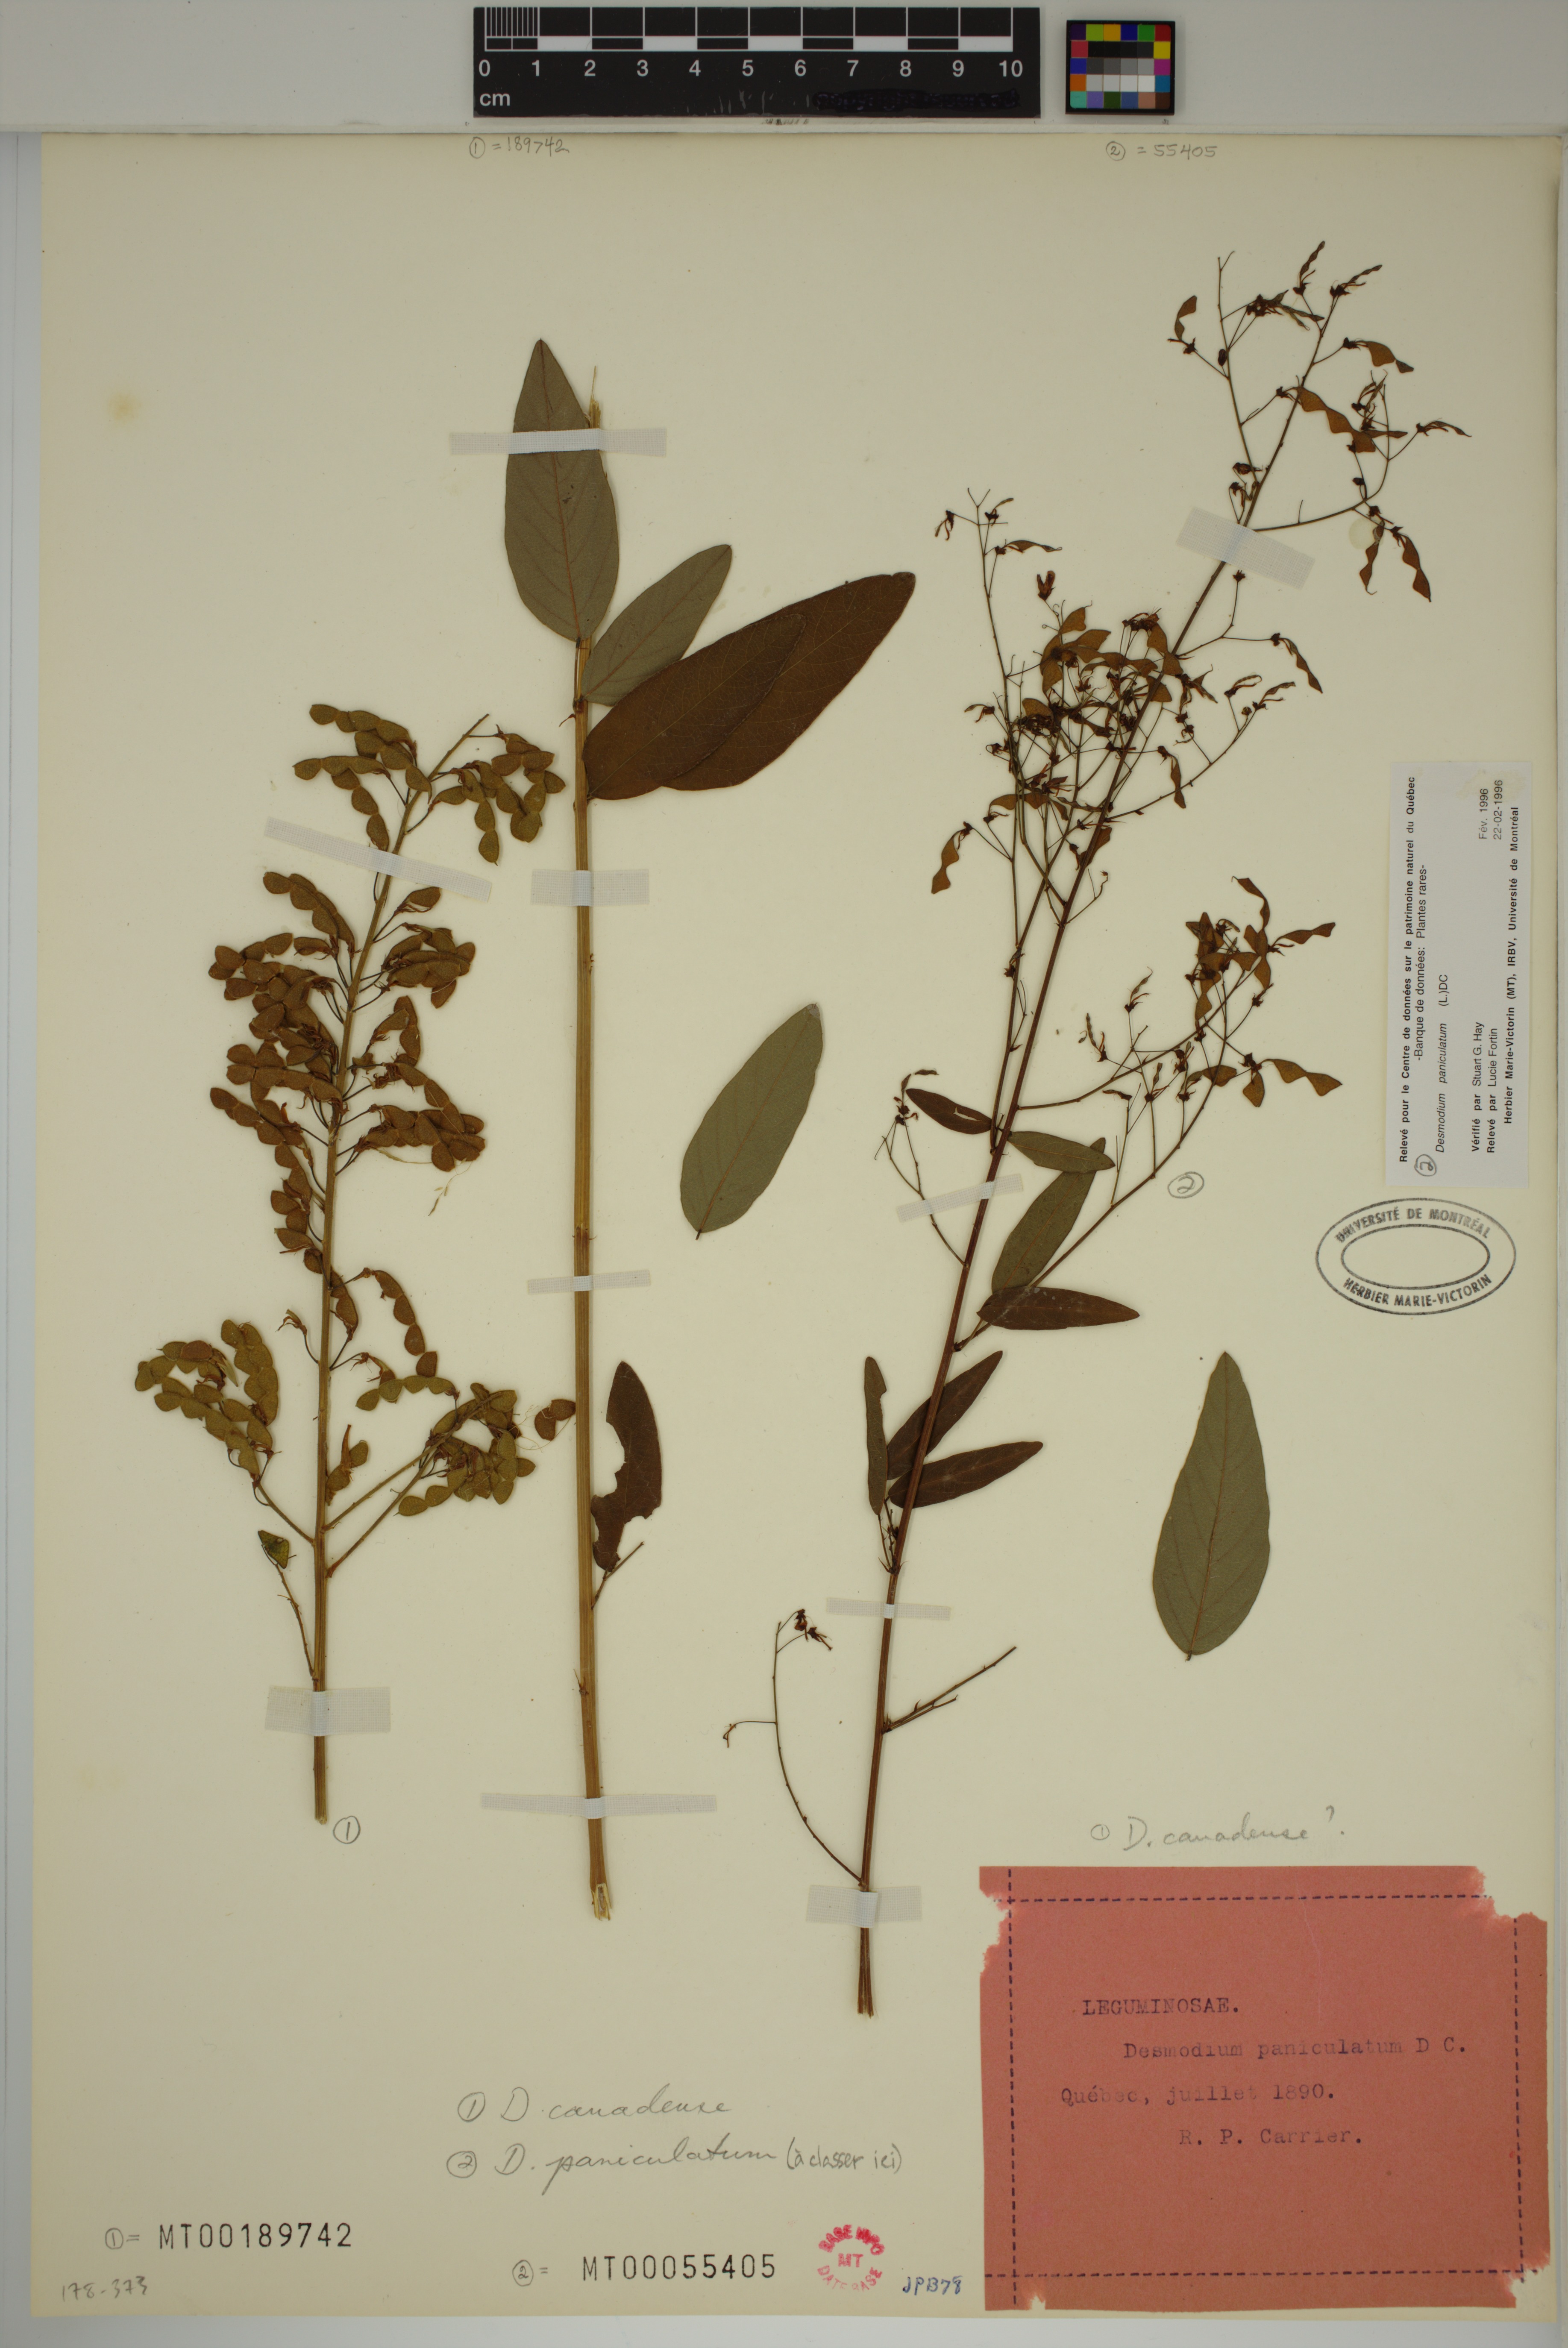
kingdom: Plantae
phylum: Tracheophyta
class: Magnoliopsida
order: Fabales
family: Fabaceae
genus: Desmodium
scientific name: Desmodium paniculatum
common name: Panicled tick-clover
